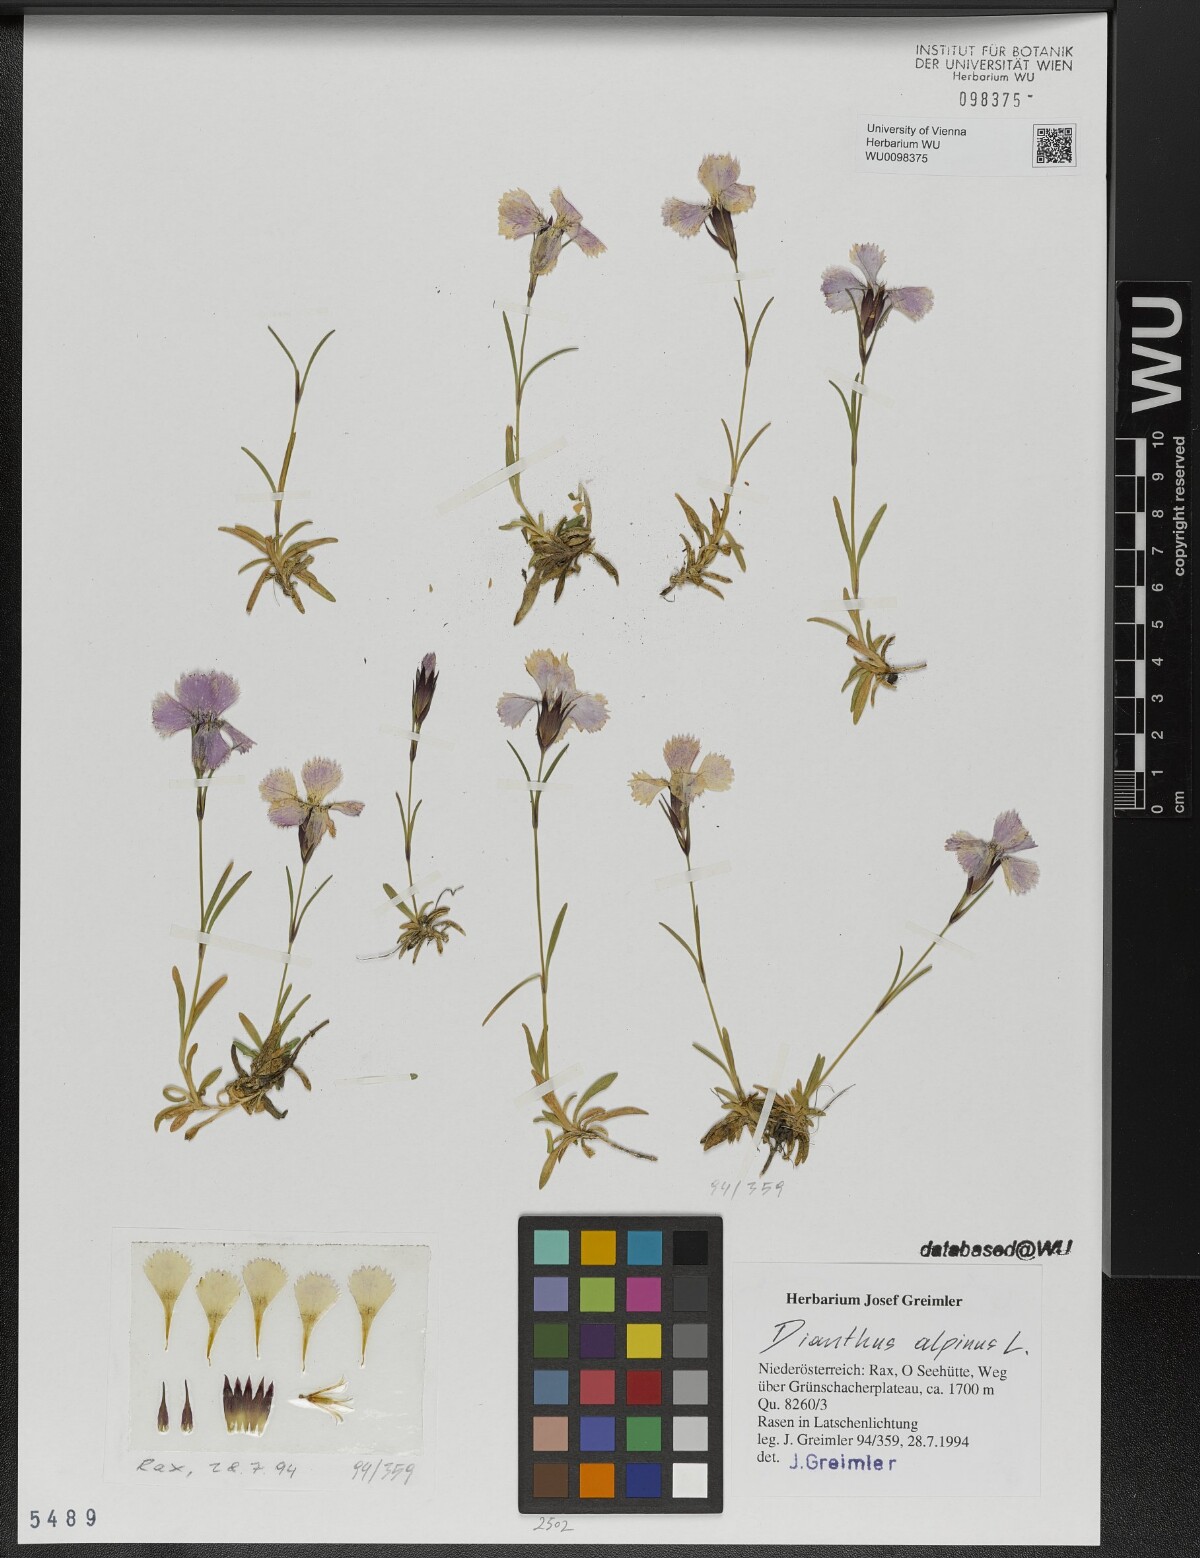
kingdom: Plantae
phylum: Tracheophyta
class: Magnoliopsida
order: Caryophyllales
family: Caryophyllaceae
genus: Dianthus
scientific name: Dianthus alpinus
